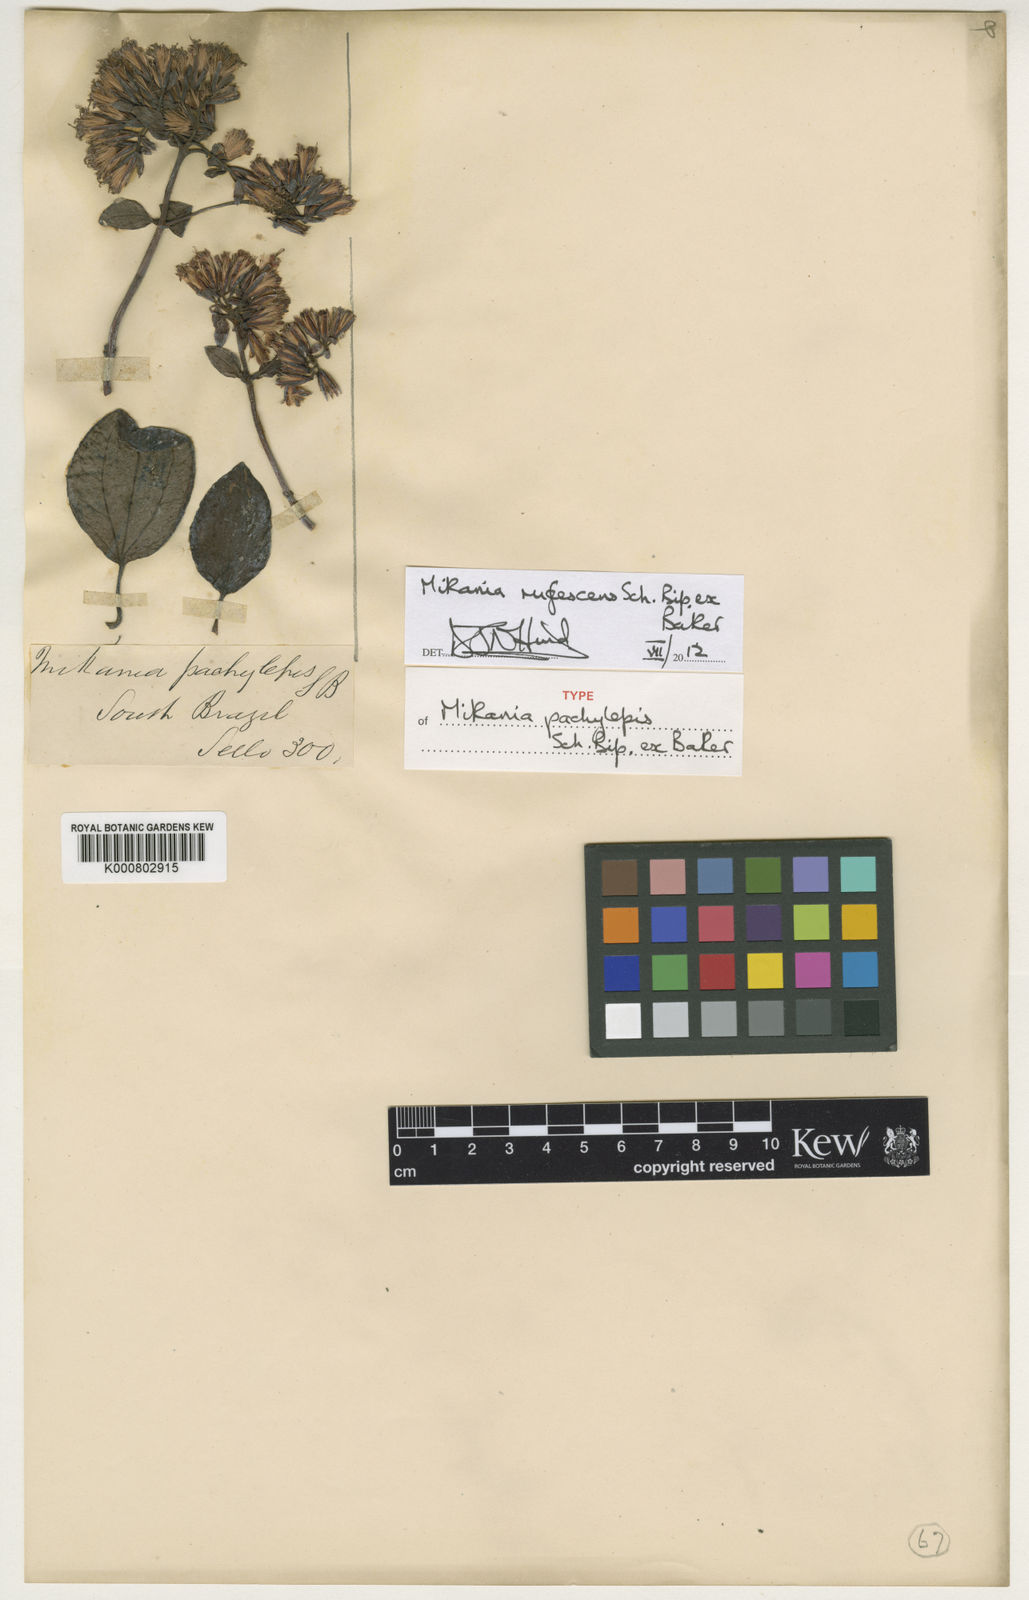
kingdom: Plantae
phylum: Tracheophyta
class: Magnoliopsida
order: Asterales
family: Asteraceae
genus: Mikania
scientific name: Mikania rufescens
